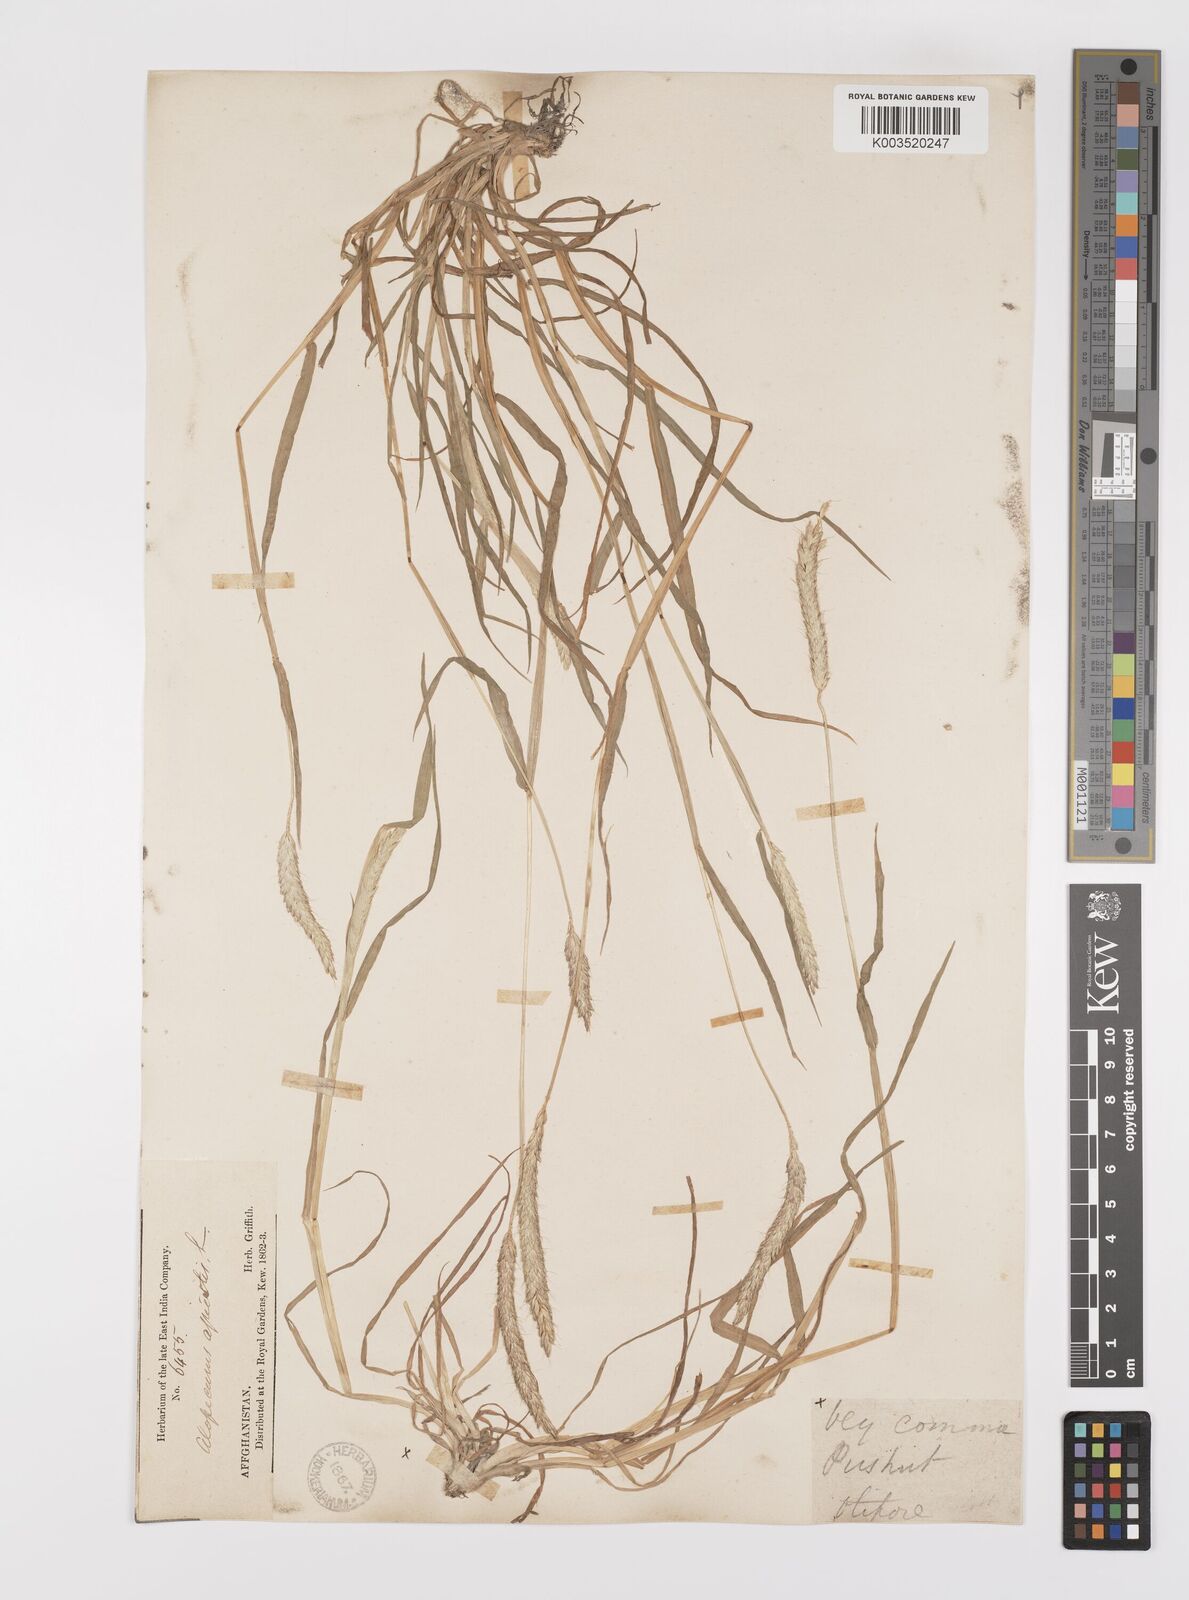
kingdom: Plantae
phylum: Tracheophyta
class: Liliopsida
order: Poales
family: Poaceae
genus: Alopecurus
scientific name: Alopecurus myosuroides
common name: Black-grass
